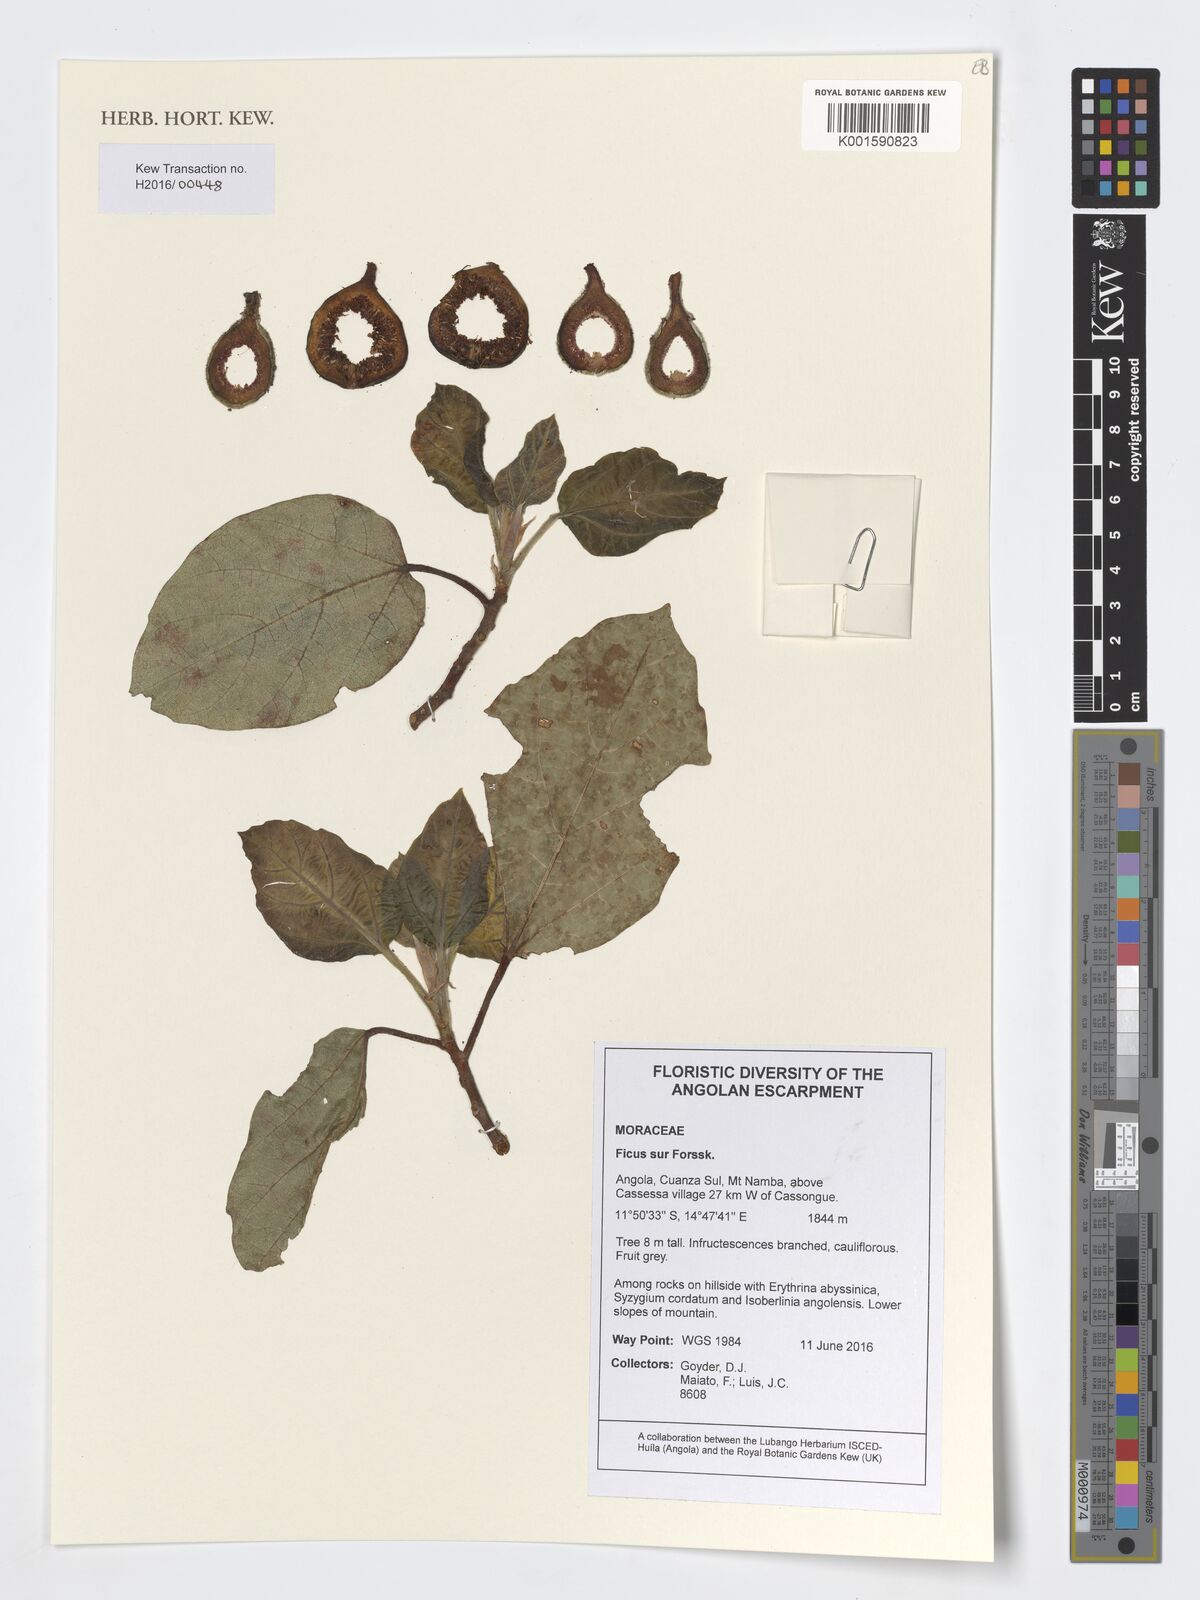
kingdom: Plantae
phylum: Tracheophyta
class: Magnoliopsida
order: Rosales
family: Moraceae
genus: Ficus
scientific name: Ficus sur
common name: Cape fig
